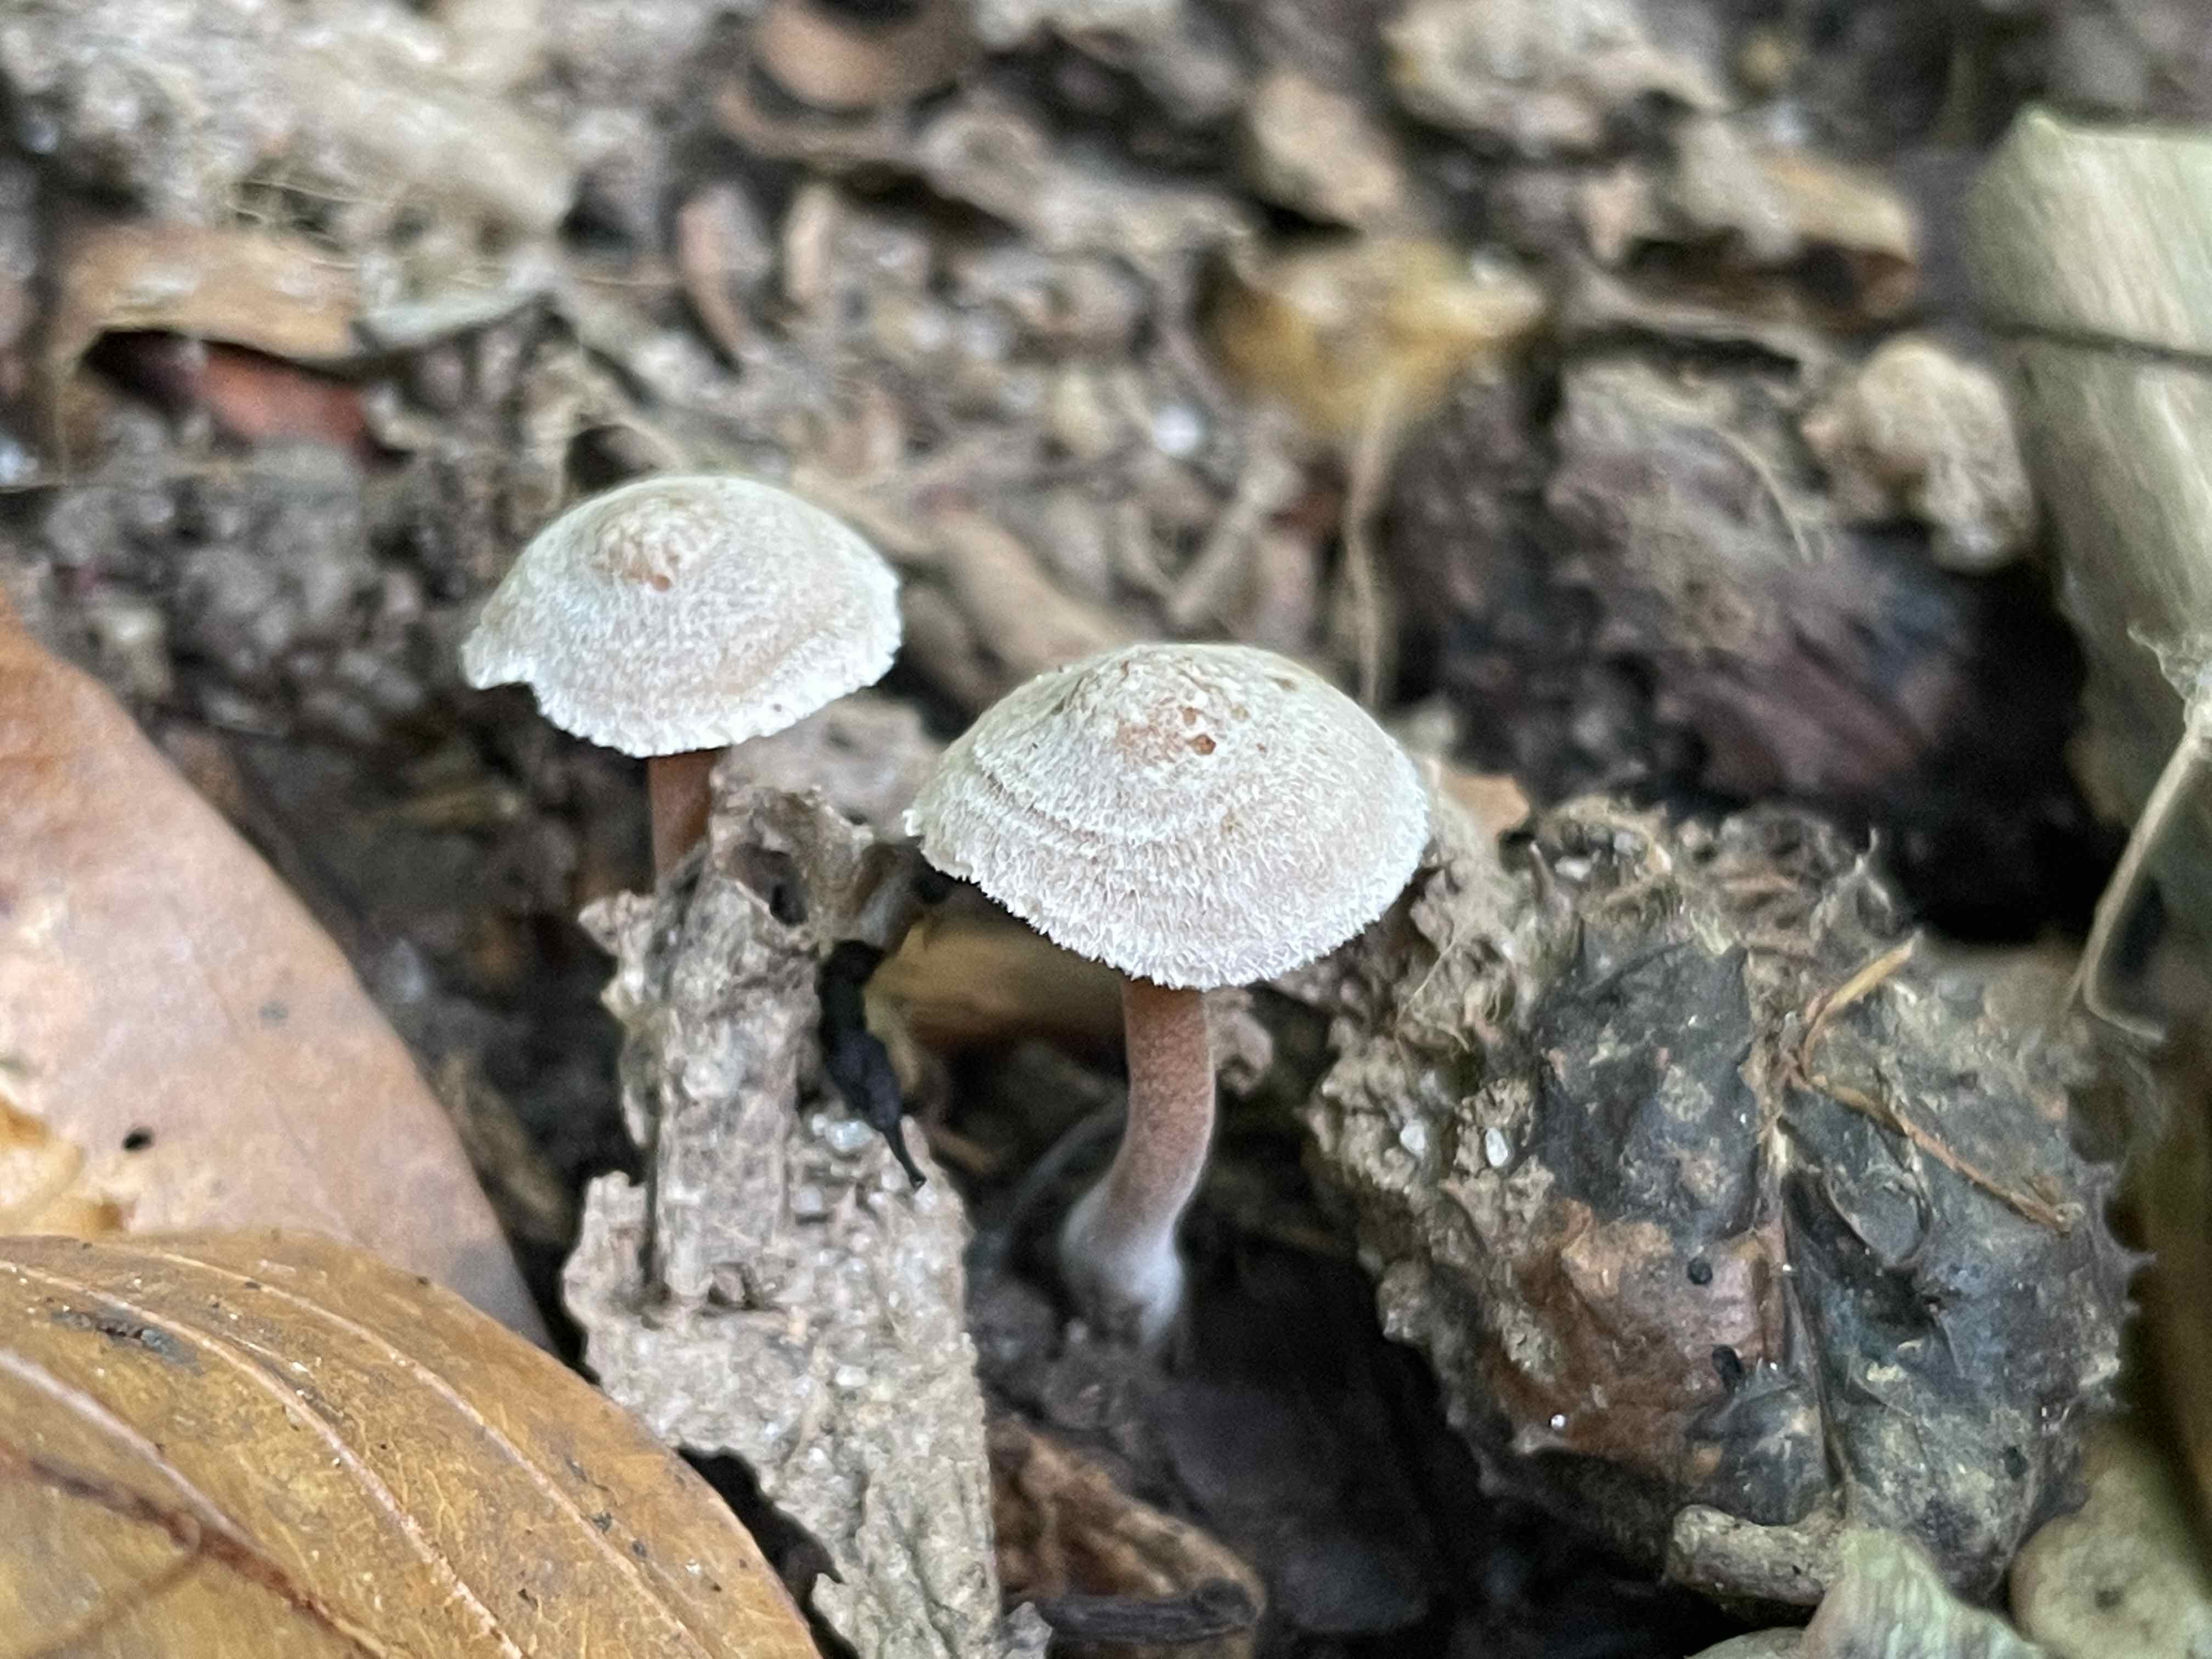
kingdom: Fungi
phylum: Basidiomycota
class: Agaricomycetes
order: Agaricales
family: Inocybaceae
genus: Inocybe
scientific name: Inocybe petiginosa
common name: liden trævlhat
